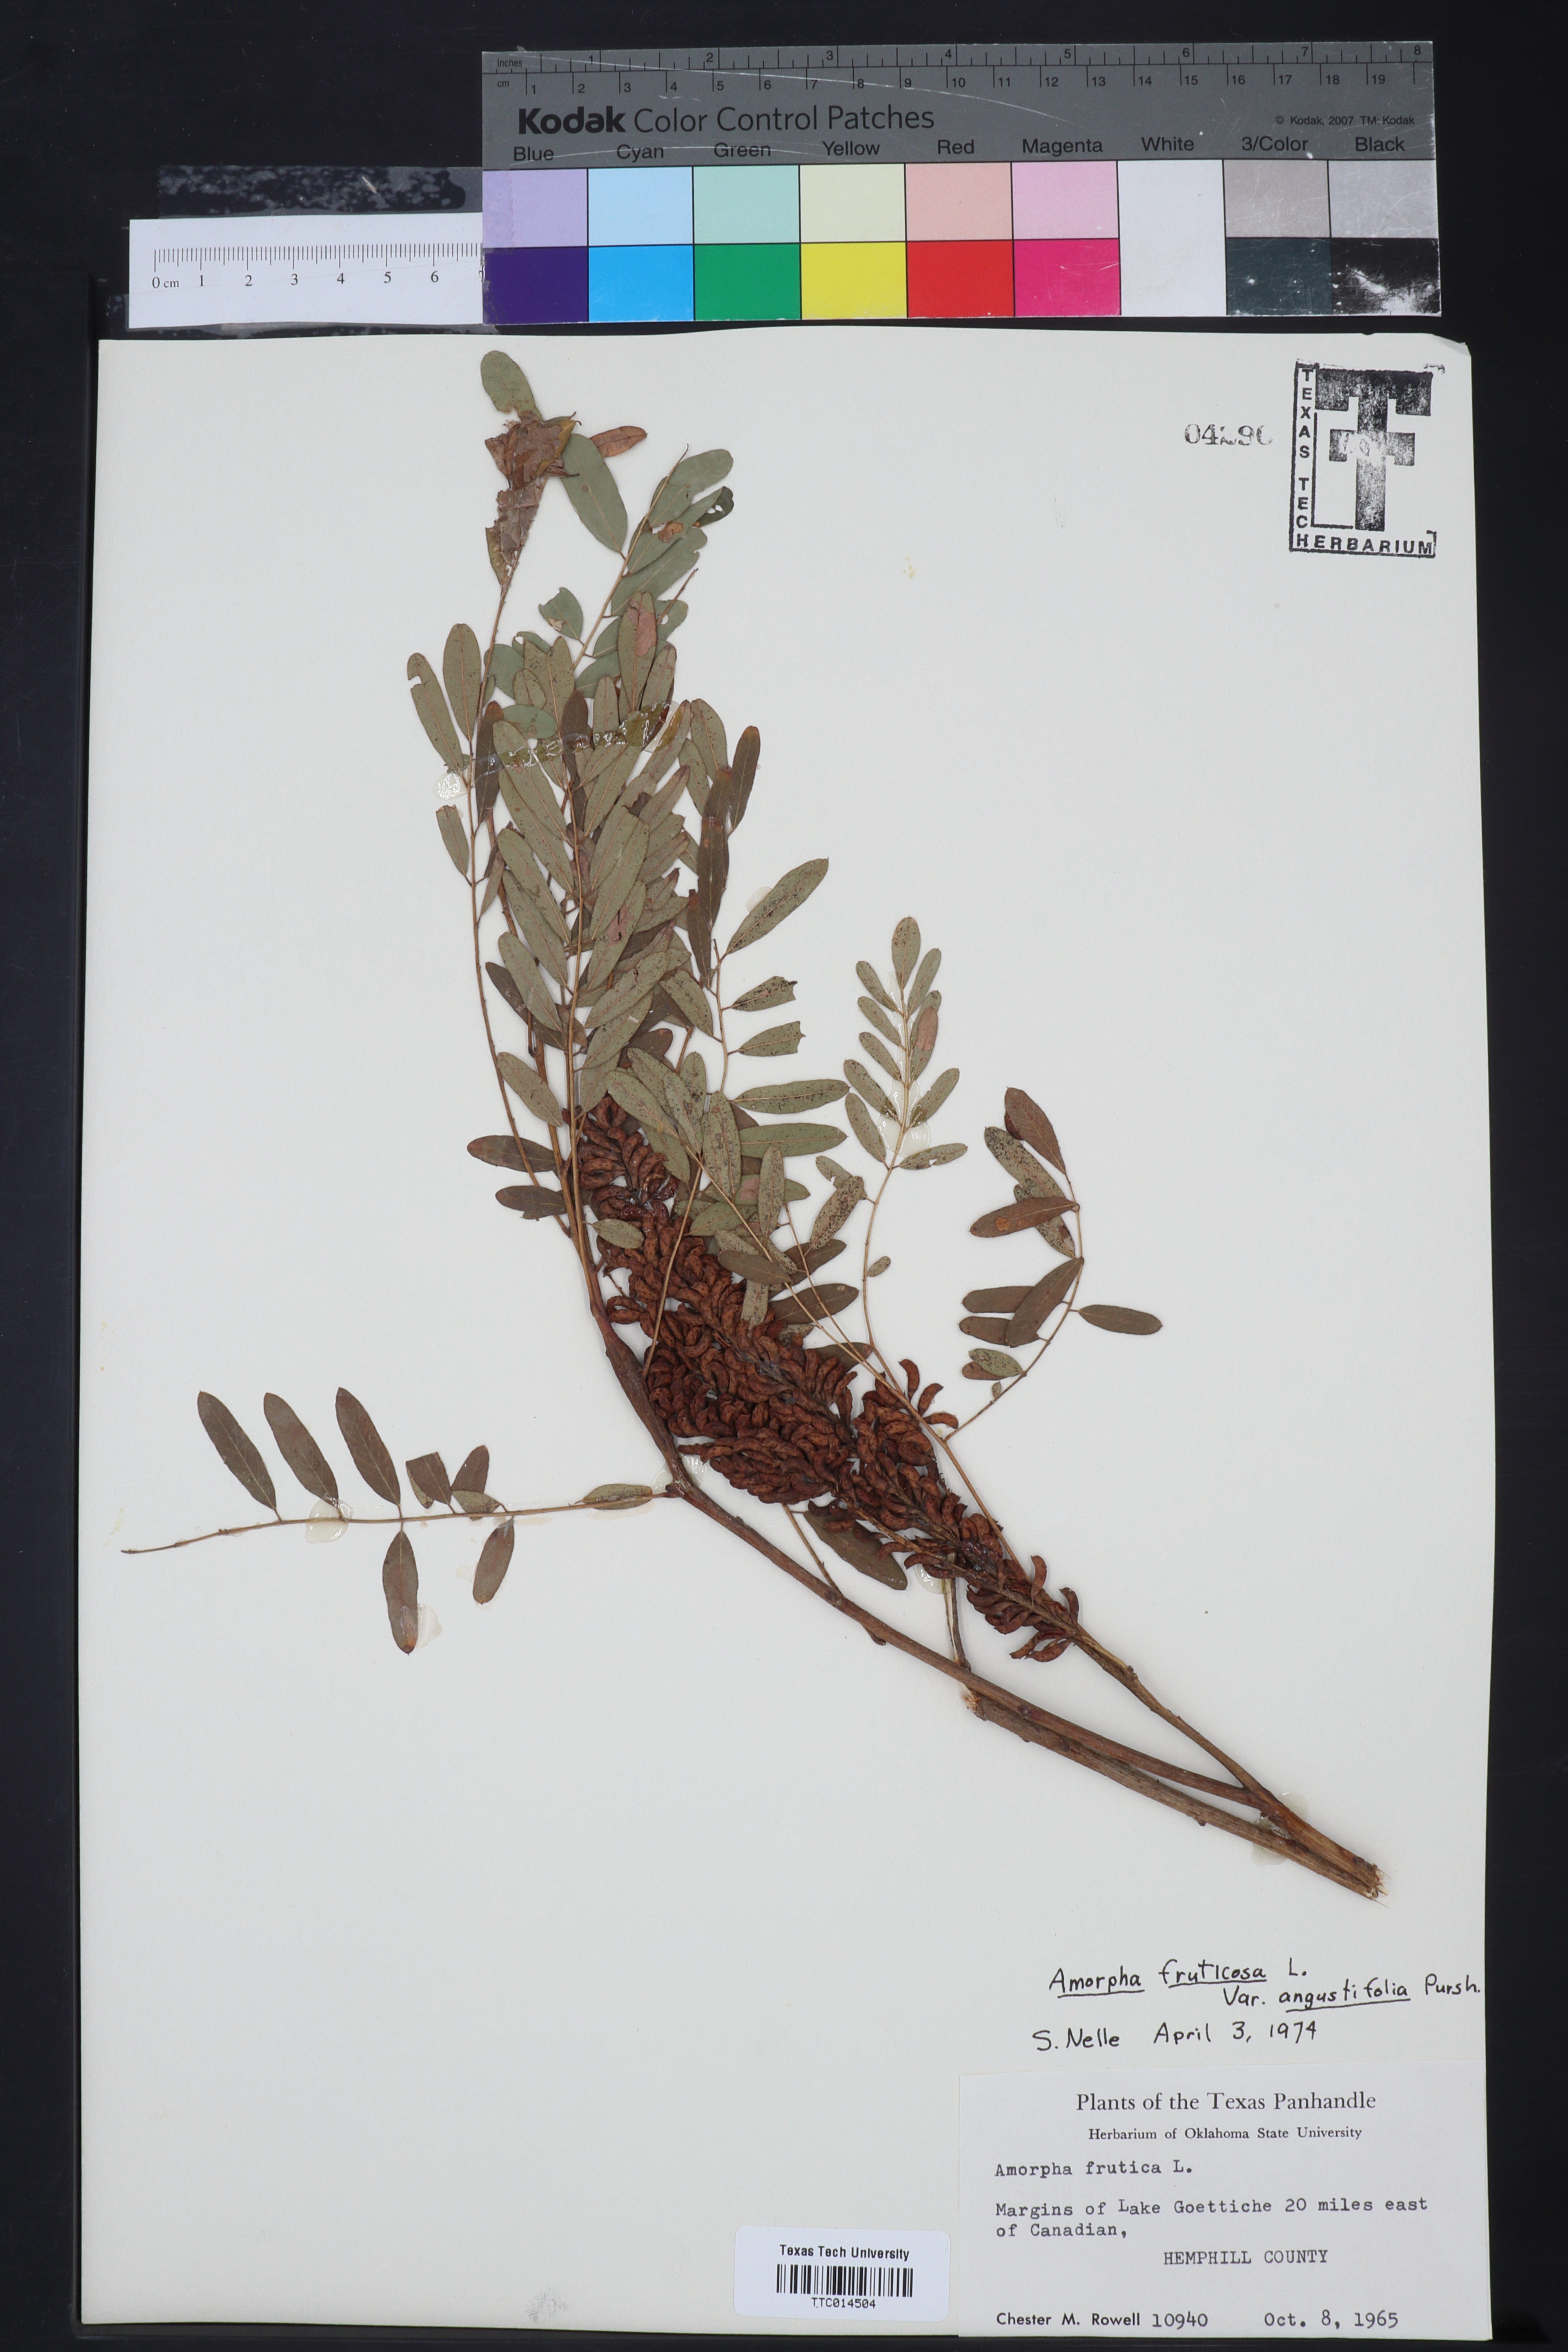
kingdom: Plantae
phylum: Tracheophyta
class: Magnoliopsida
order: Fabales
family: Fabaceae
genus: Amorpha
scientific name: Amorpha fruticosa
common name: False indigo
